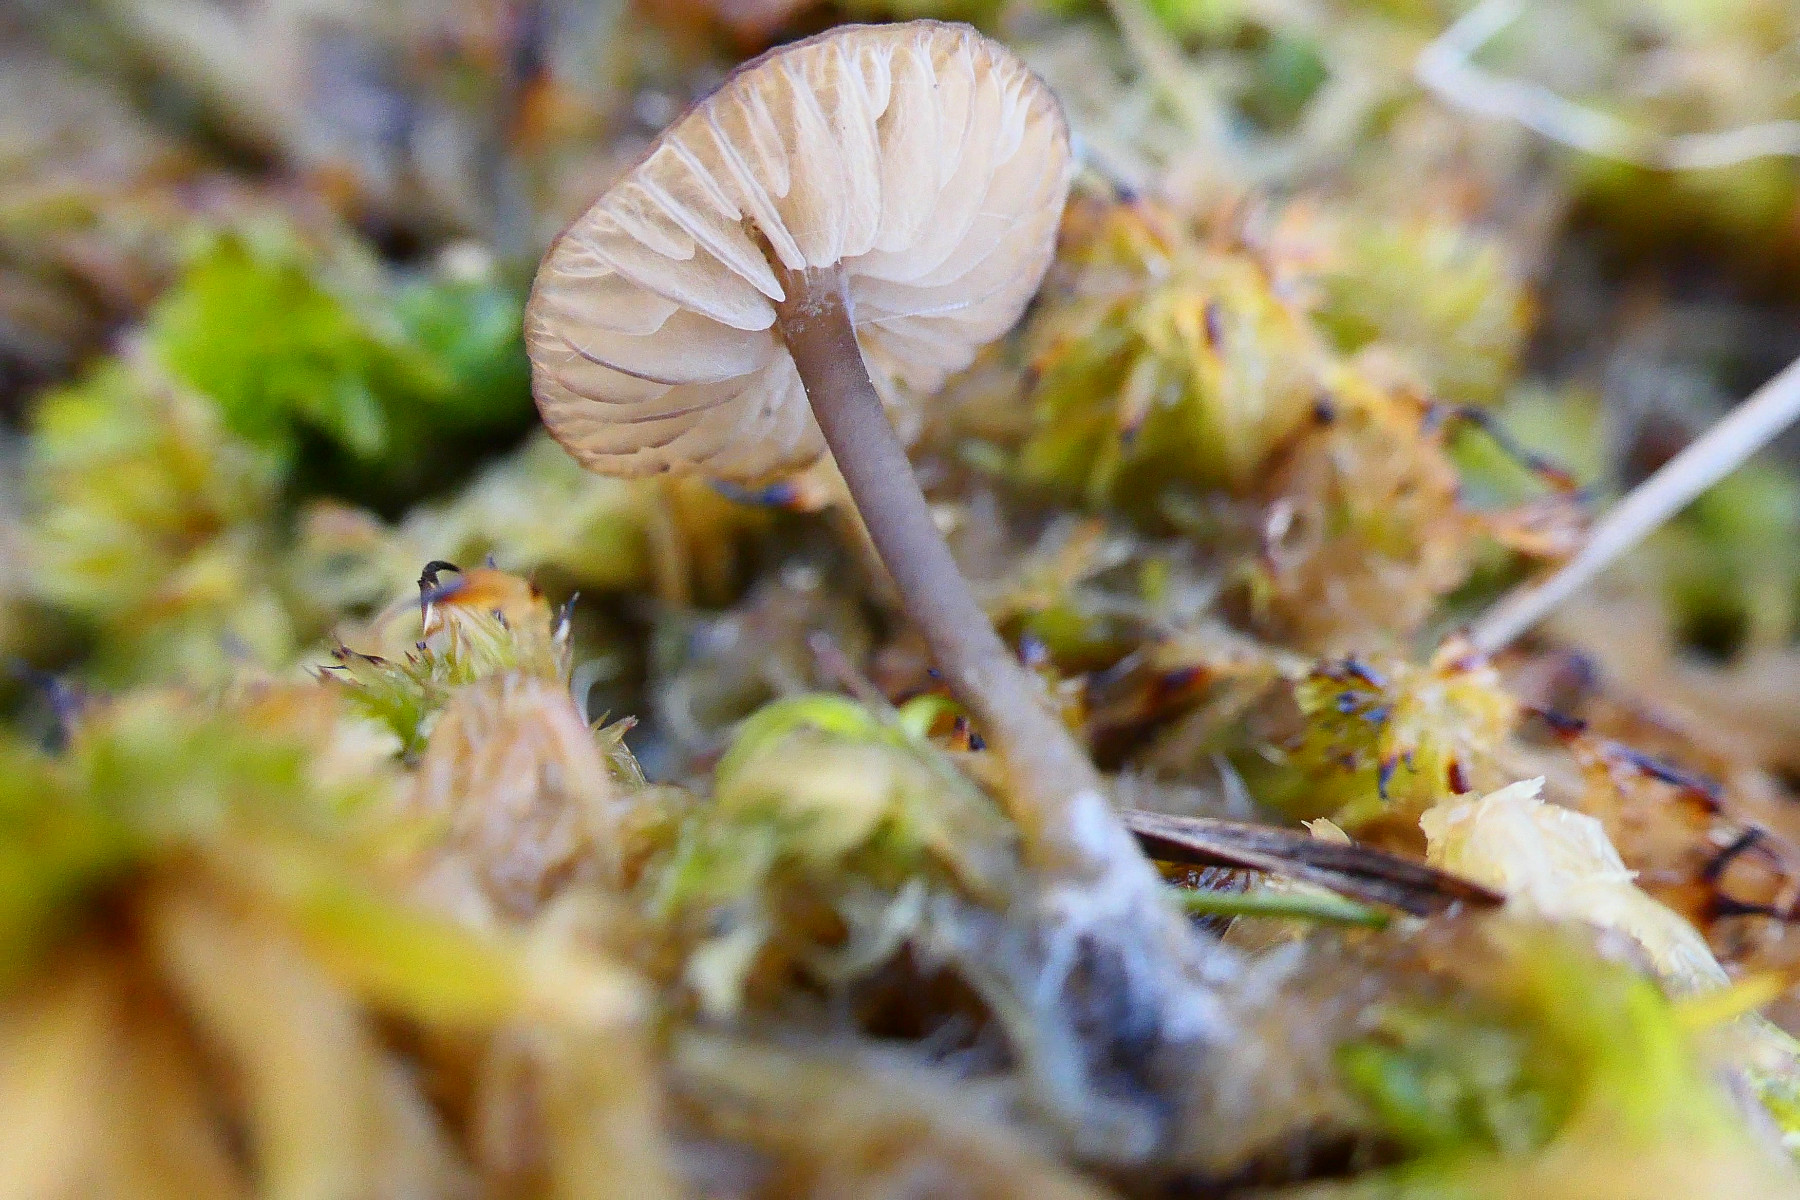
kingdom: Fungi
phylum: Basidiomycota
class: Agaricomycetes
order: Agaricales
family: Lyophyllaceae
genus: Sphagnurus
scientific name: Sphagnurus paluster
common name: tørvemos-gråblad
